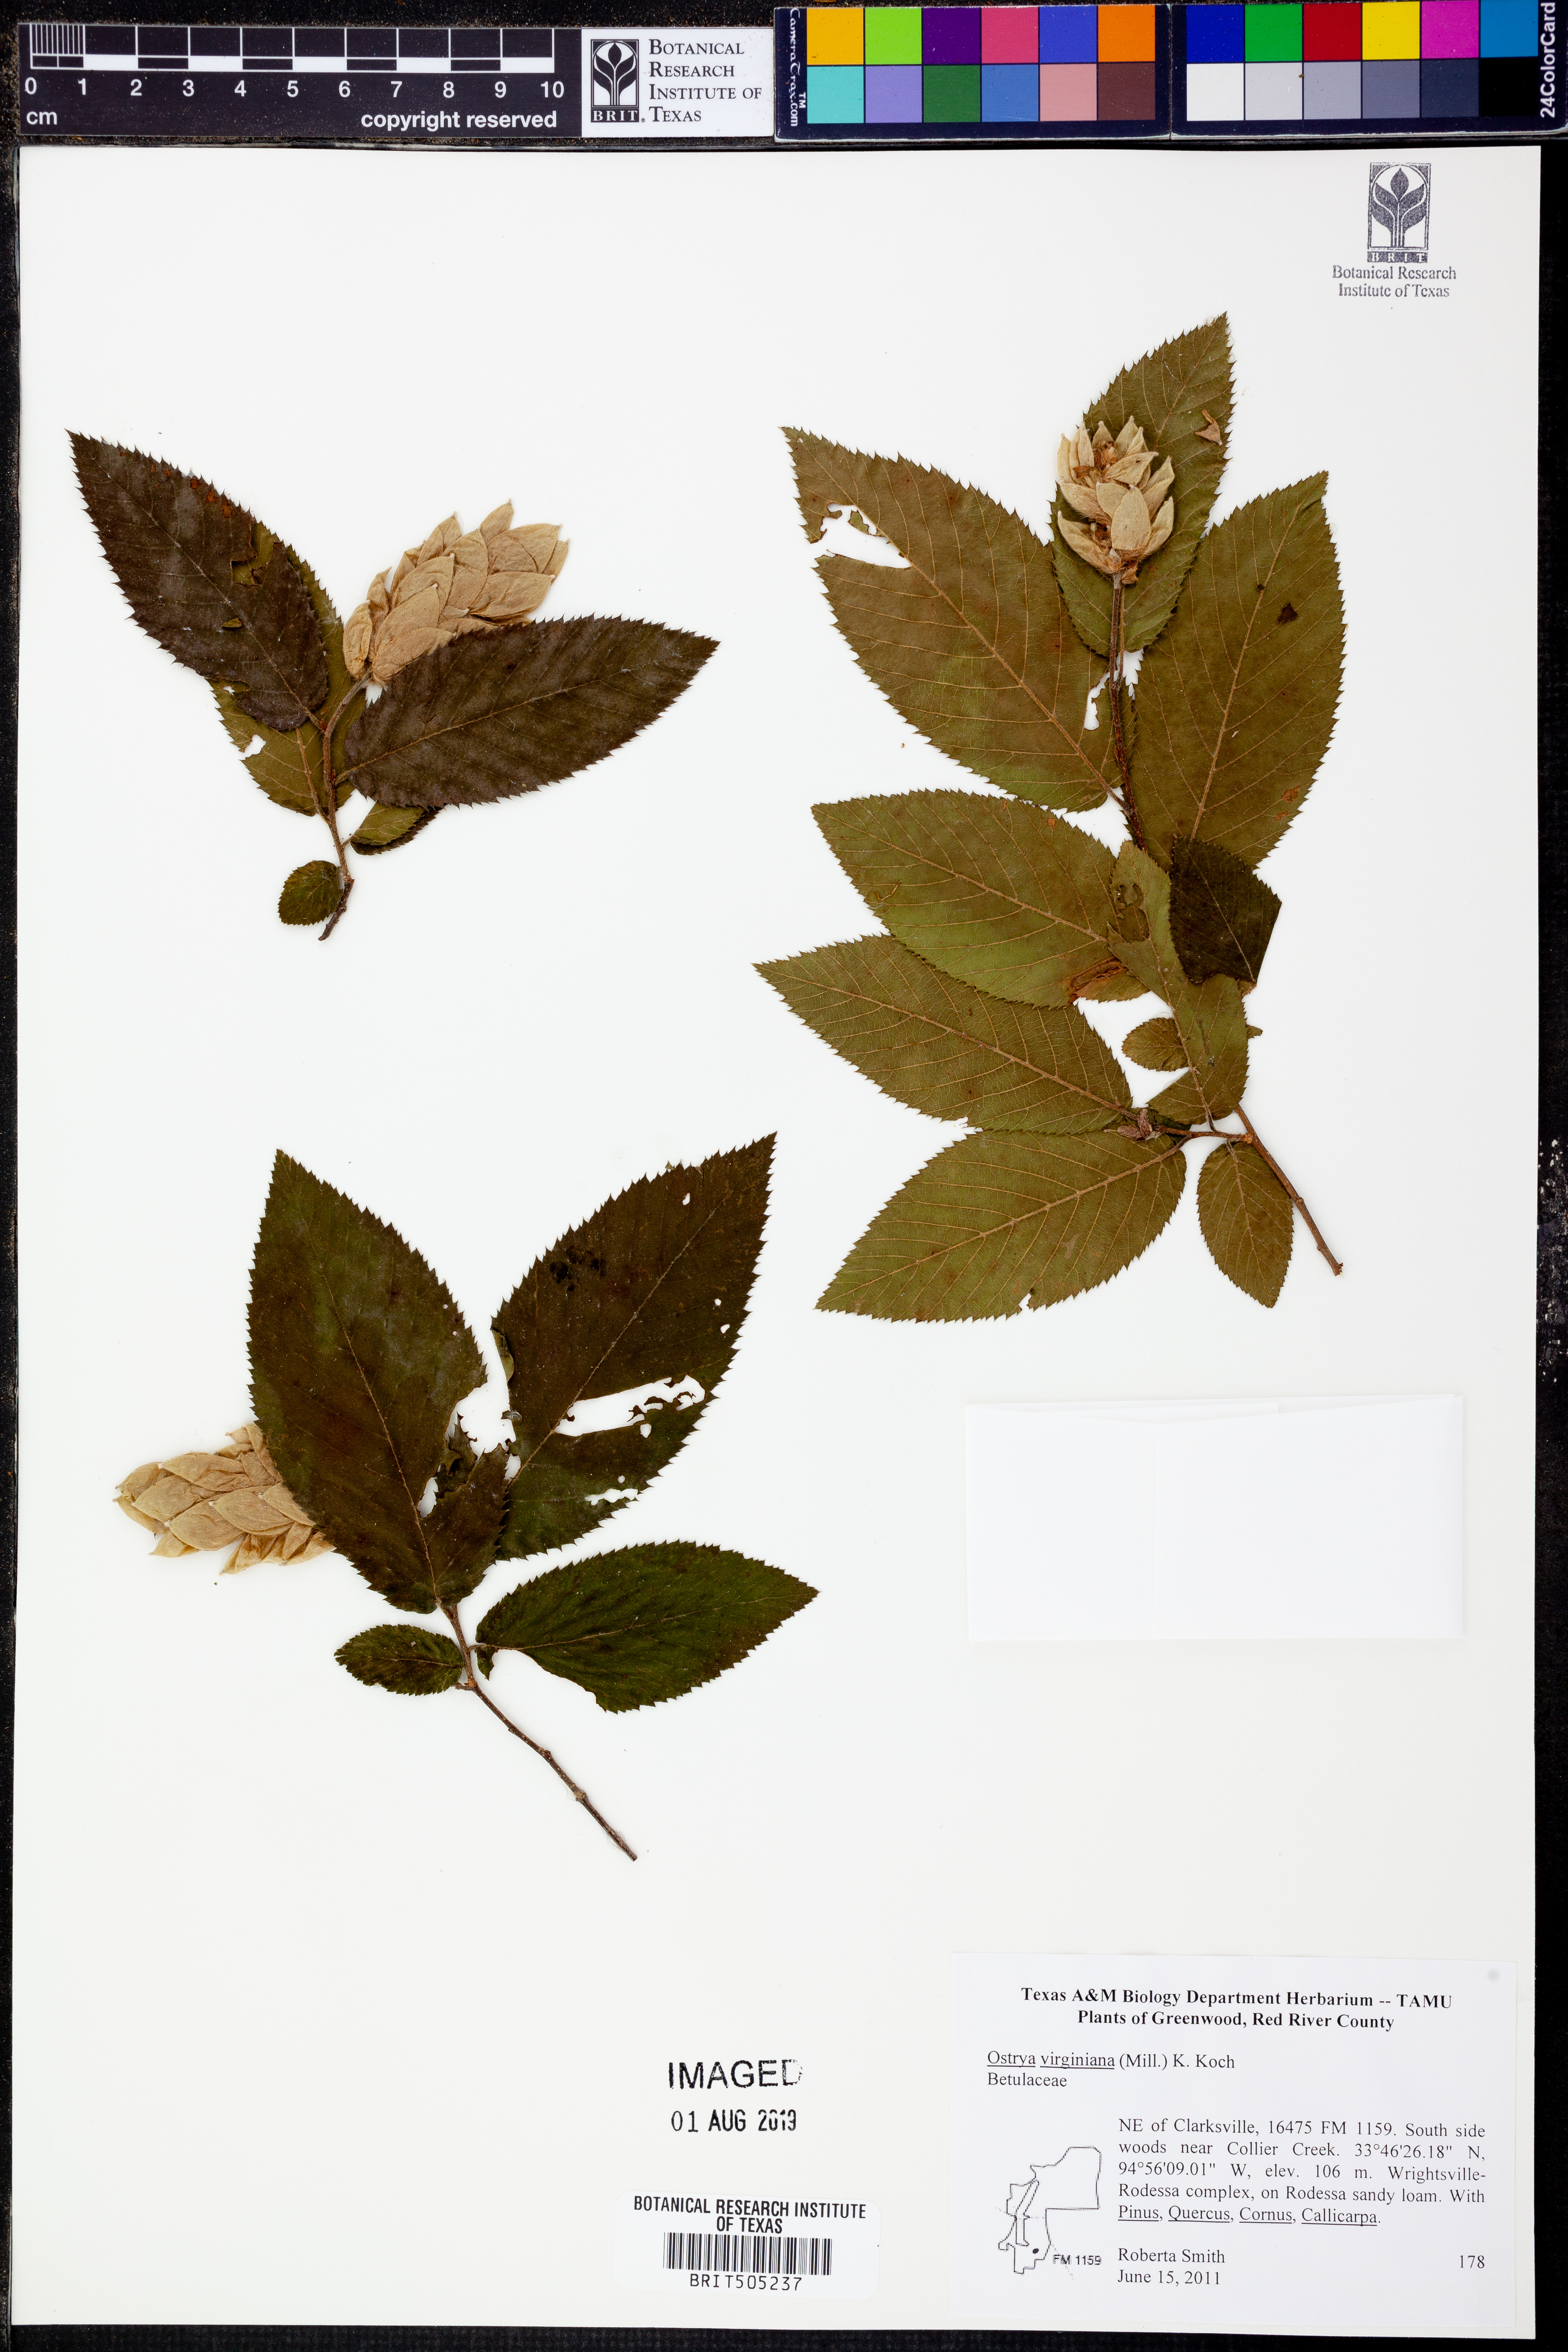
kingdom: Plantae
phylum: Tracheophyta
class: Magnoliopsida
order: Fagales
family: Betulaceae
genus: Ostrya
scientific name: Ostrya virginiana
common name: Ironwood
